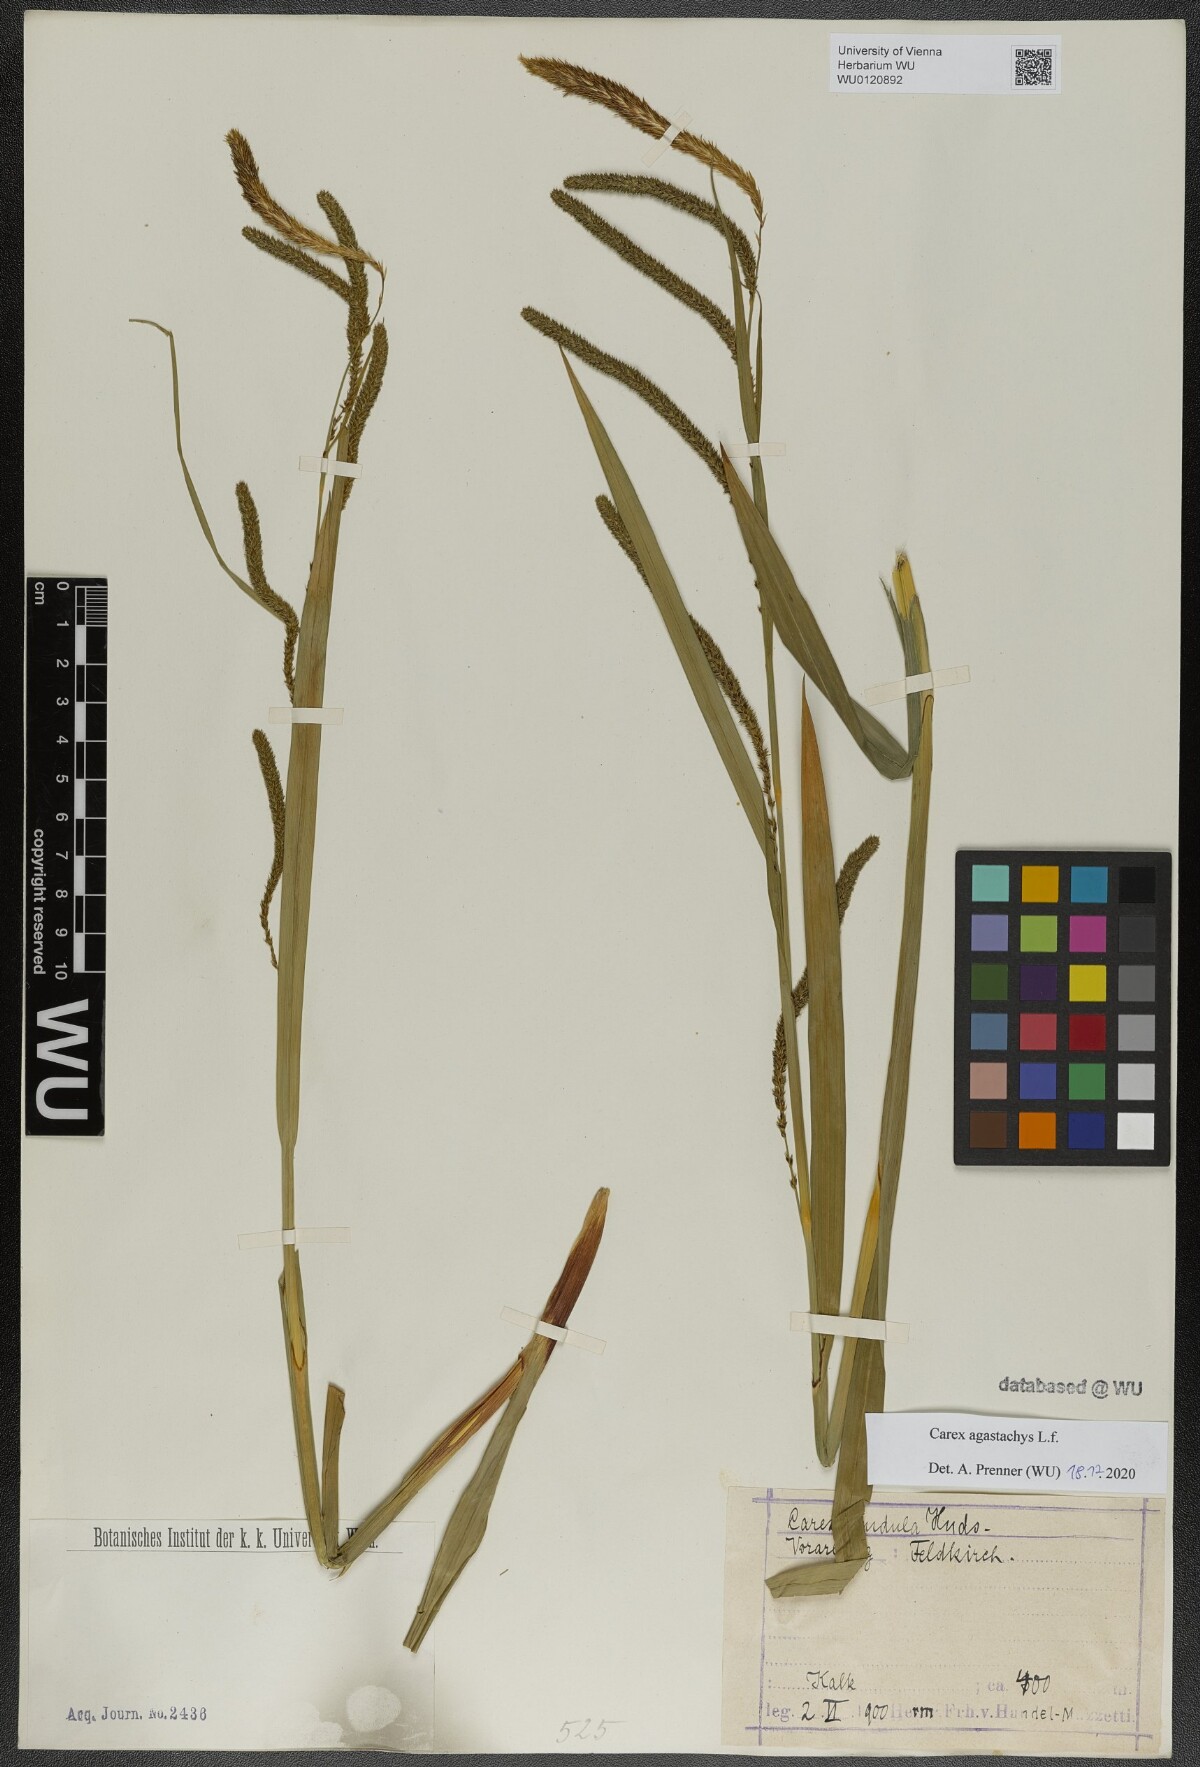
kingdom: Plantae
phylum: Tracheophyta
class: Liliopsida
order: Poales
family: Cyperaceae
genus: Carex
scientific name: Carex agastachys
